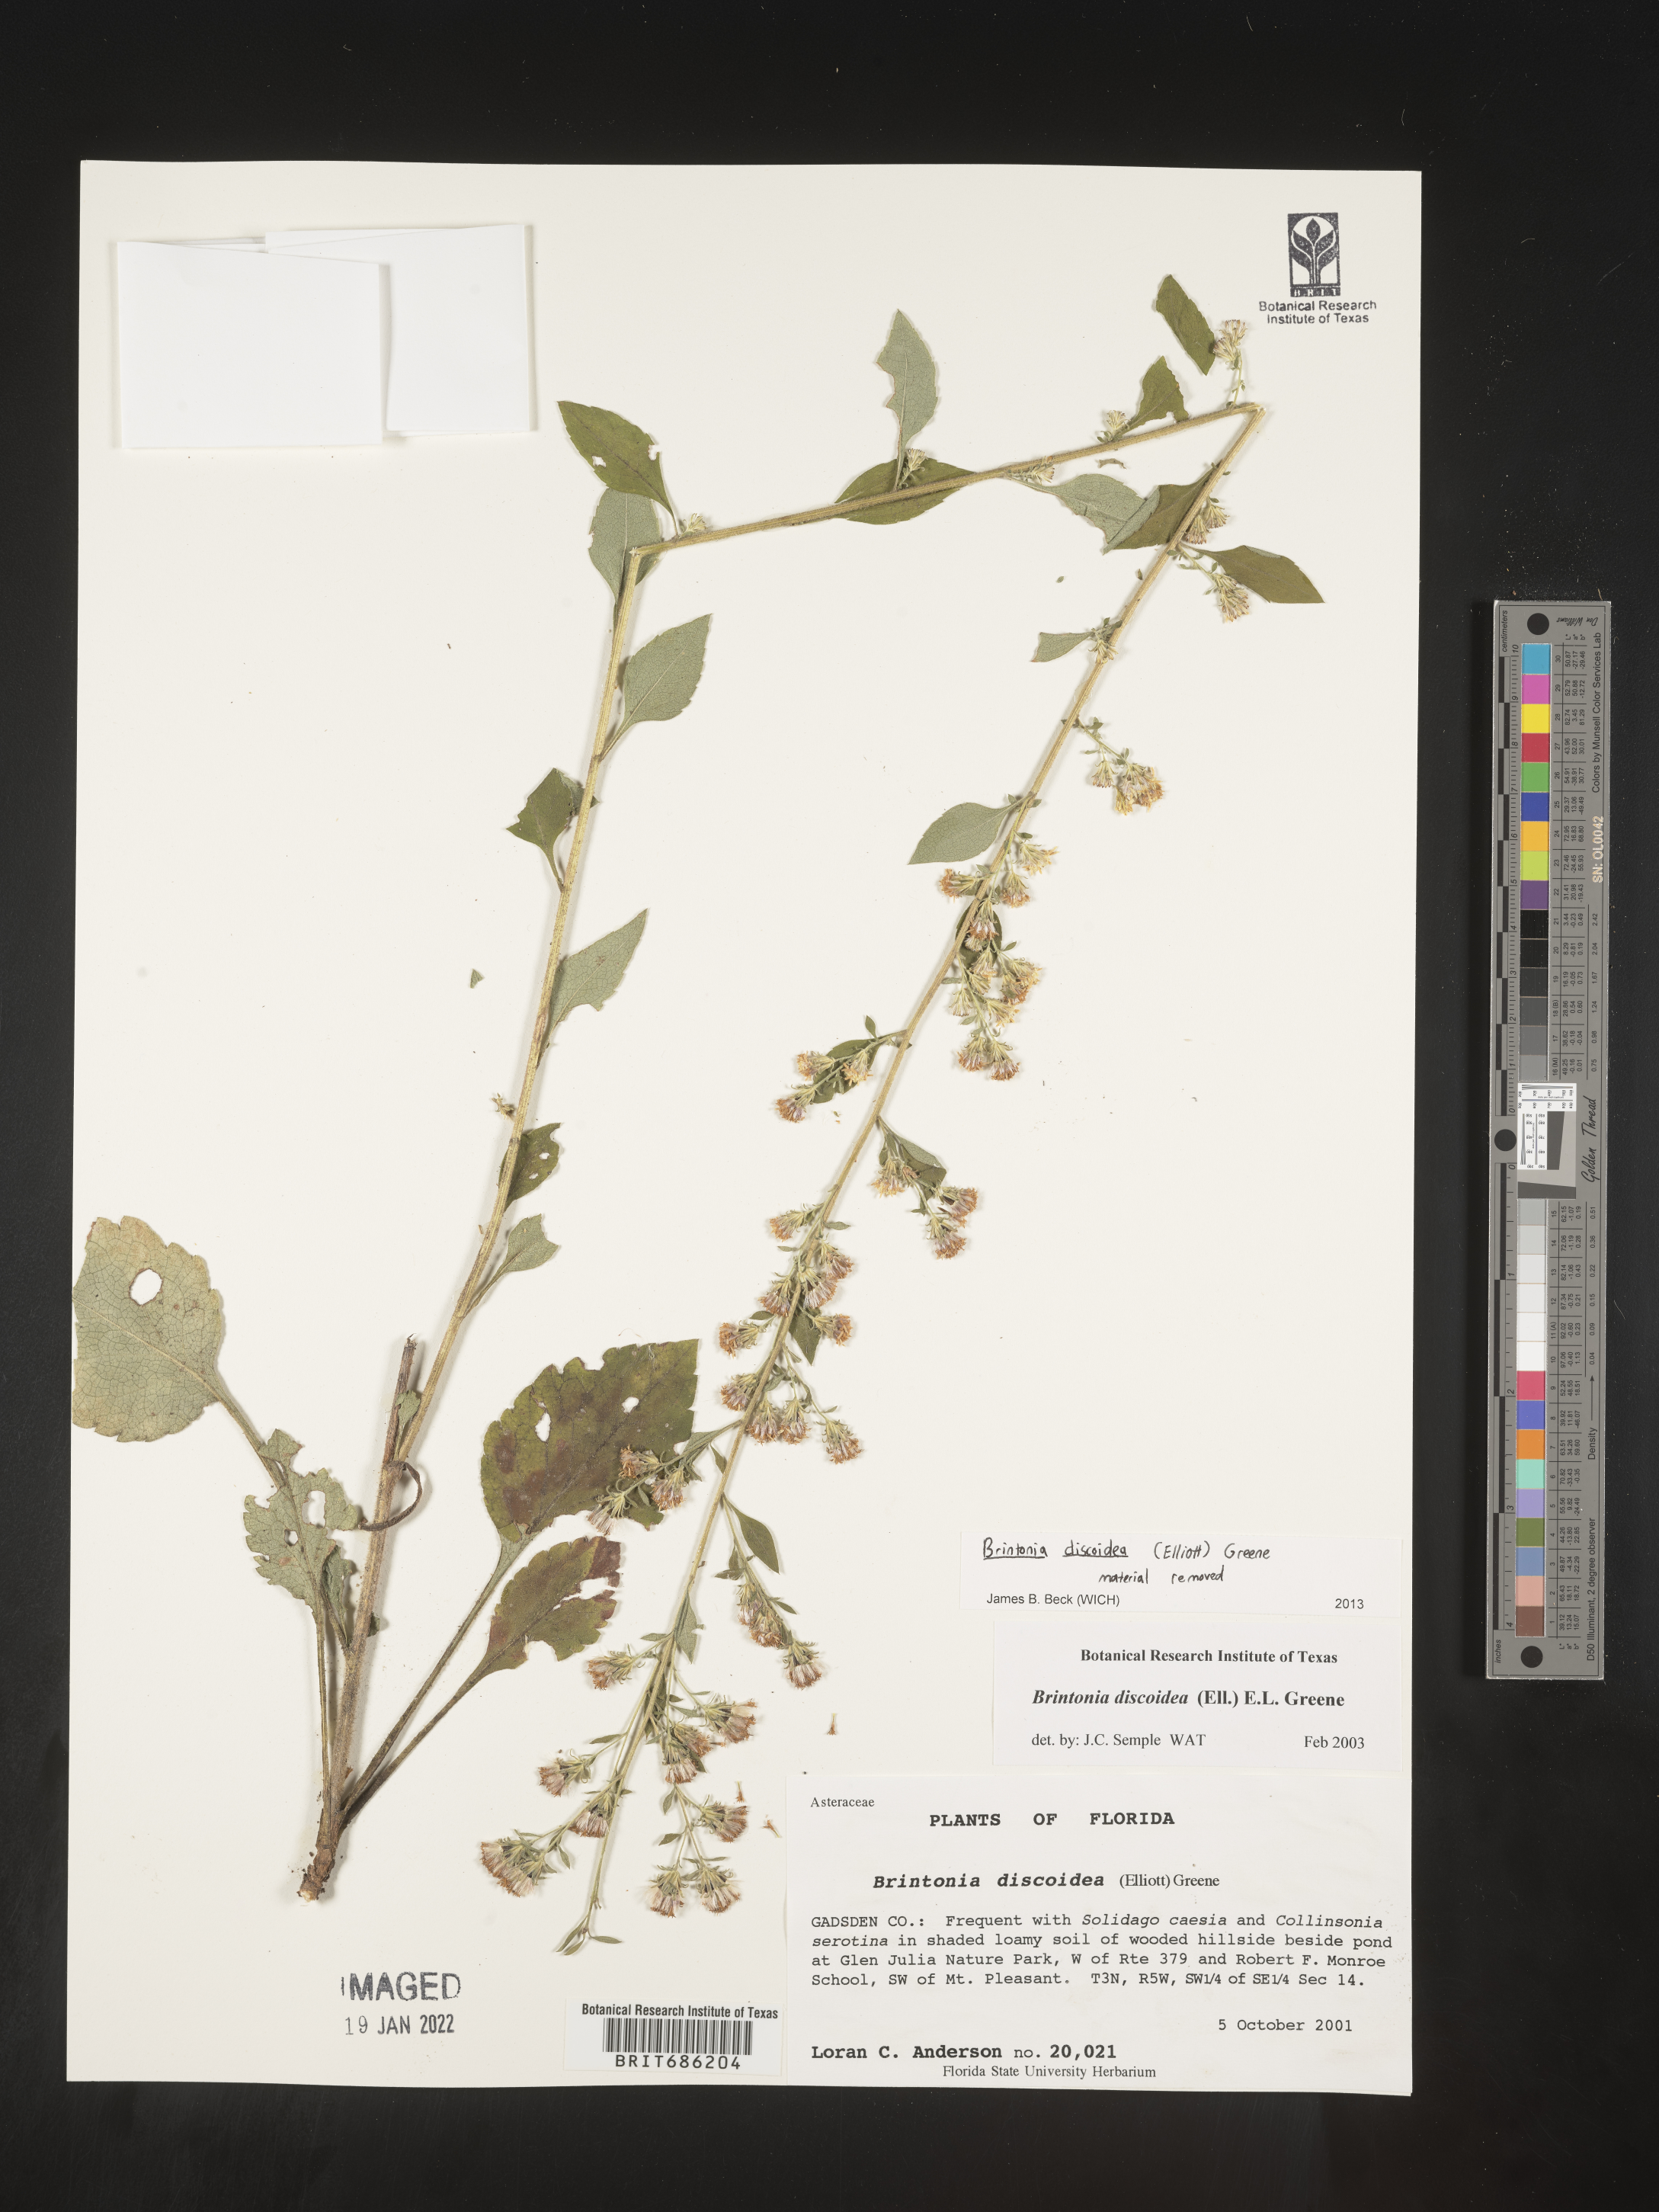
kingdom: Plantae
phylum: Tracheophyta
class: Magnoliopsida
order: Asterales
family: Asteraceae
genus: Solidago
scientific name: Solidago discoidea
